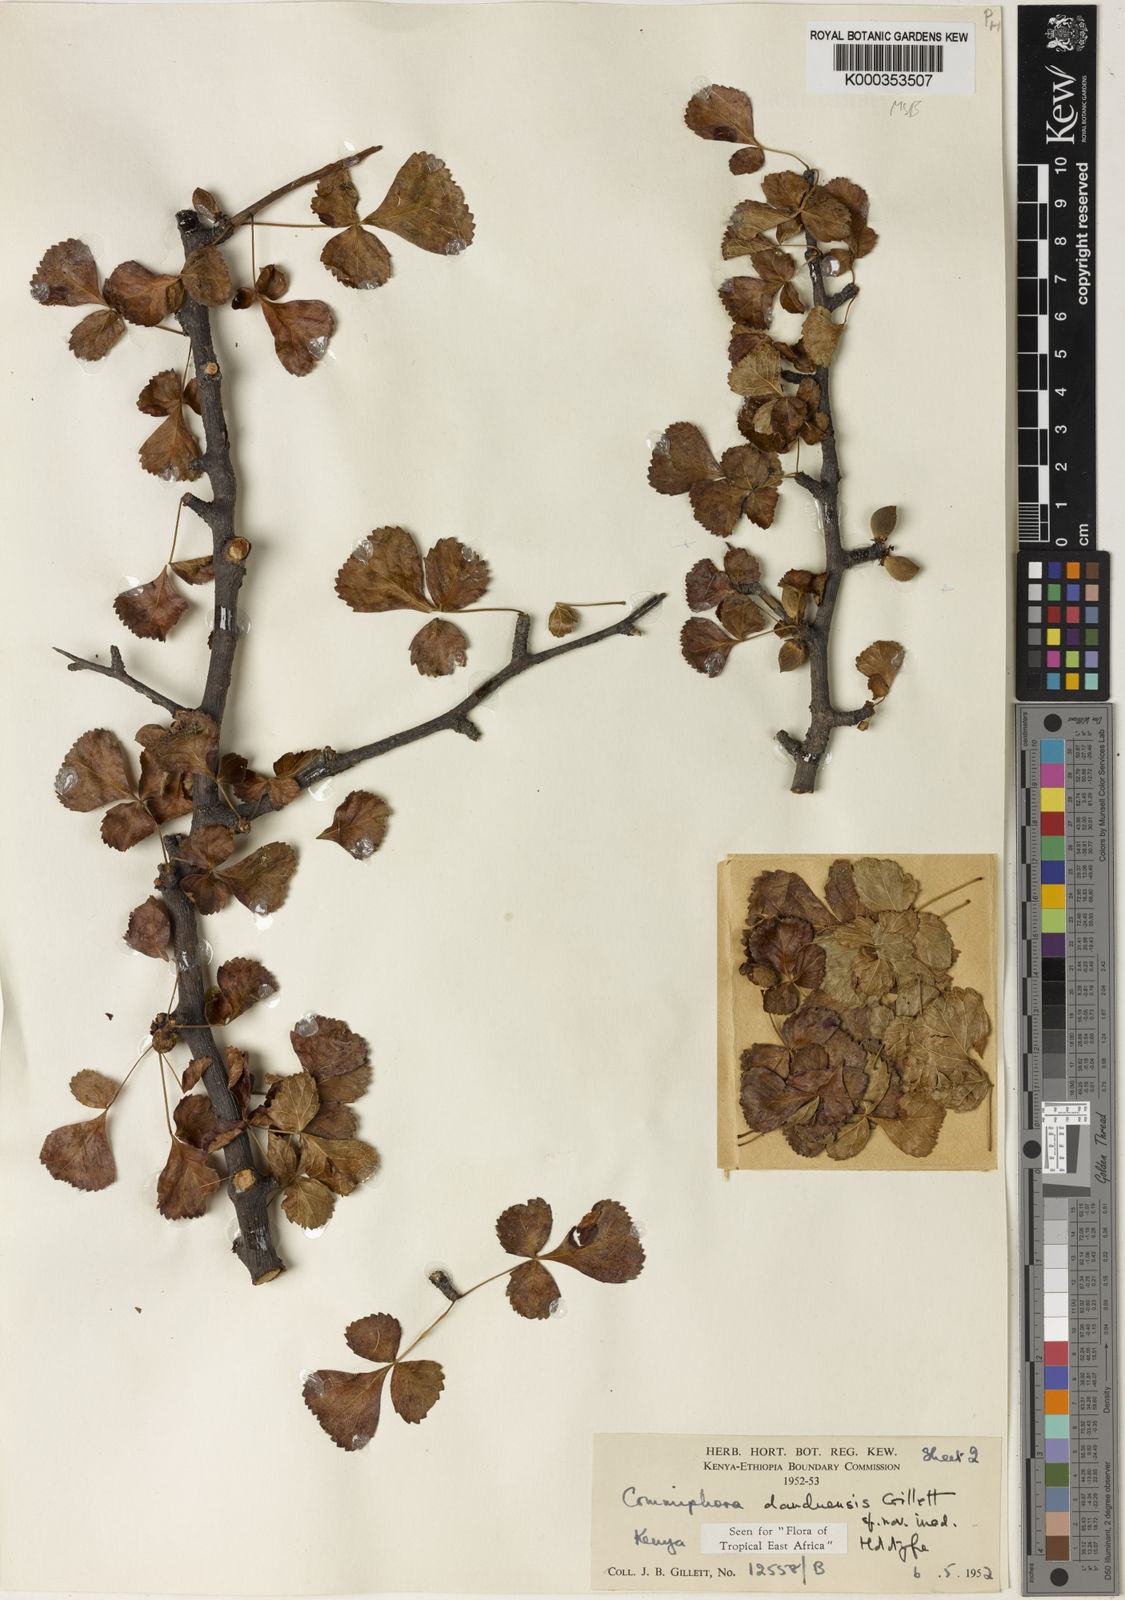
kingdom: Plantae
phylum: Tracheophyta
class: Magnoliopsida
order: Sapindales
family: Burseraceae
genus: Commiphora
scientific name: Commiphora samharensis
